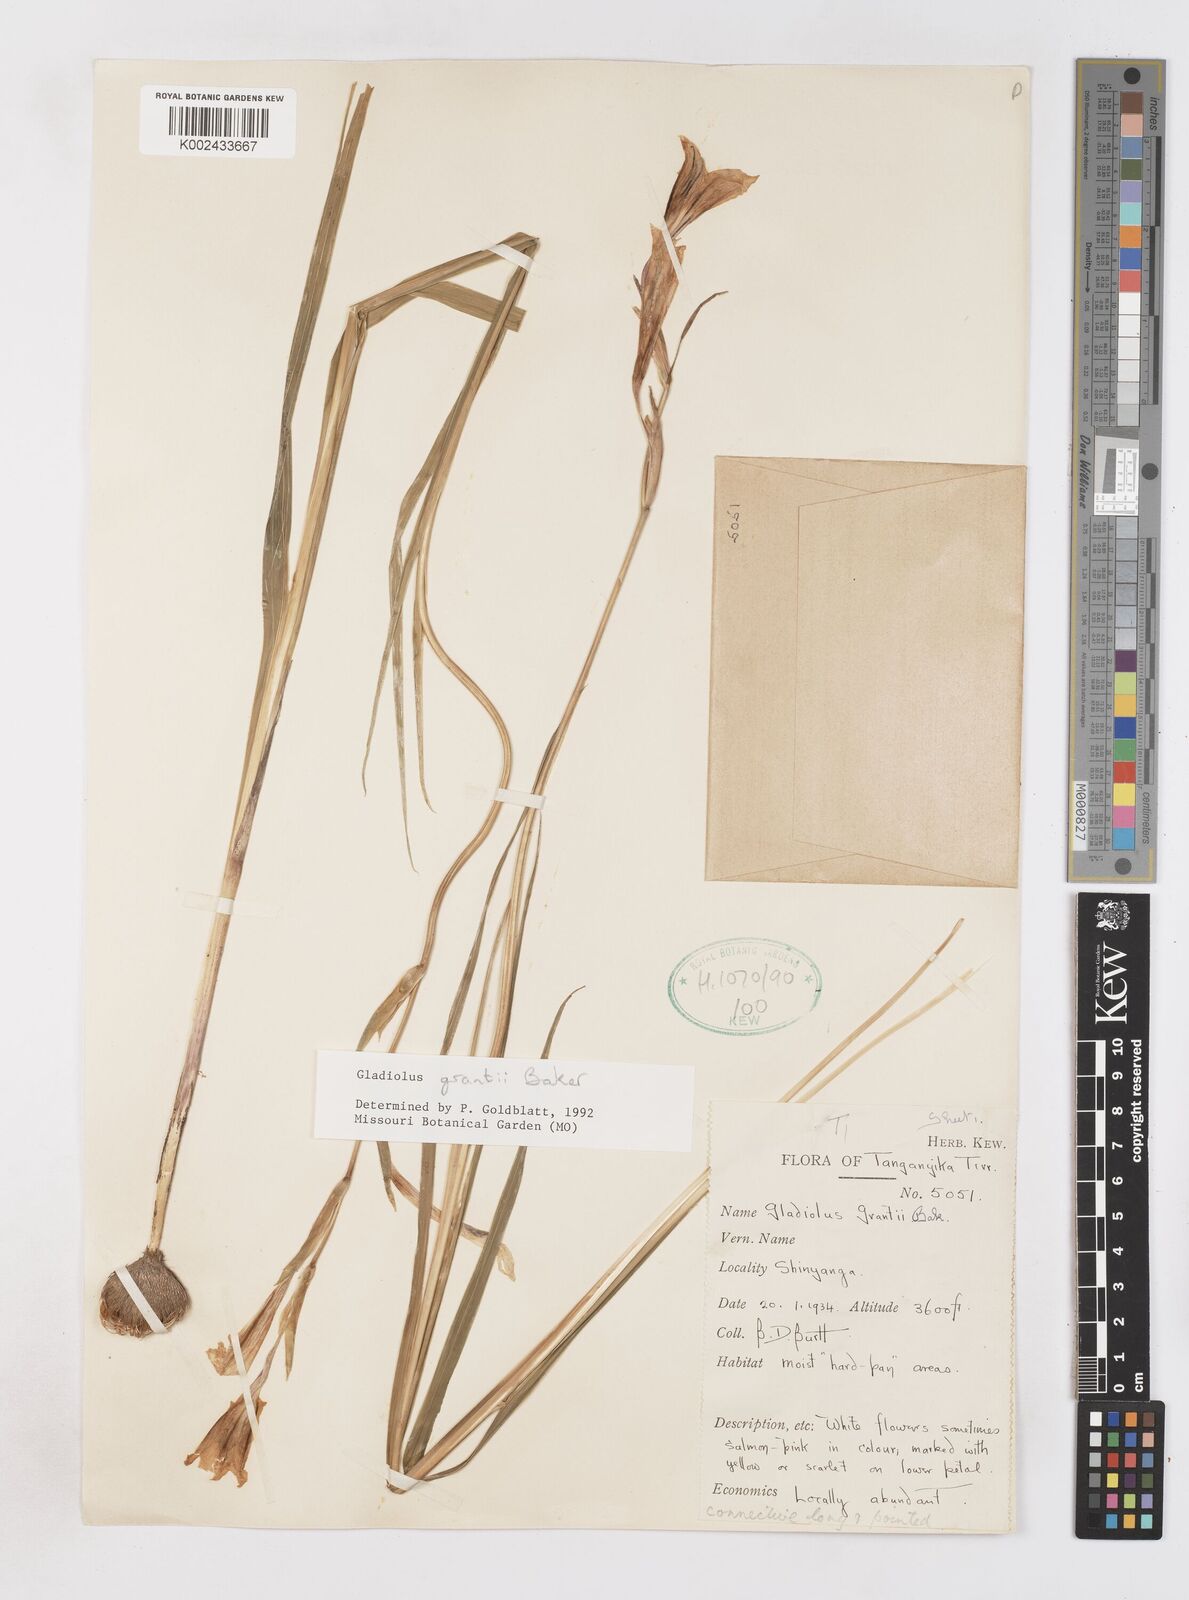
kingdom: Plantae
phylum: Tracheophyta
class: Liliopsida
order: Asparagales
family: Iridaceae
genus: Gladiolus
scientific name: Gladiolus grantii
